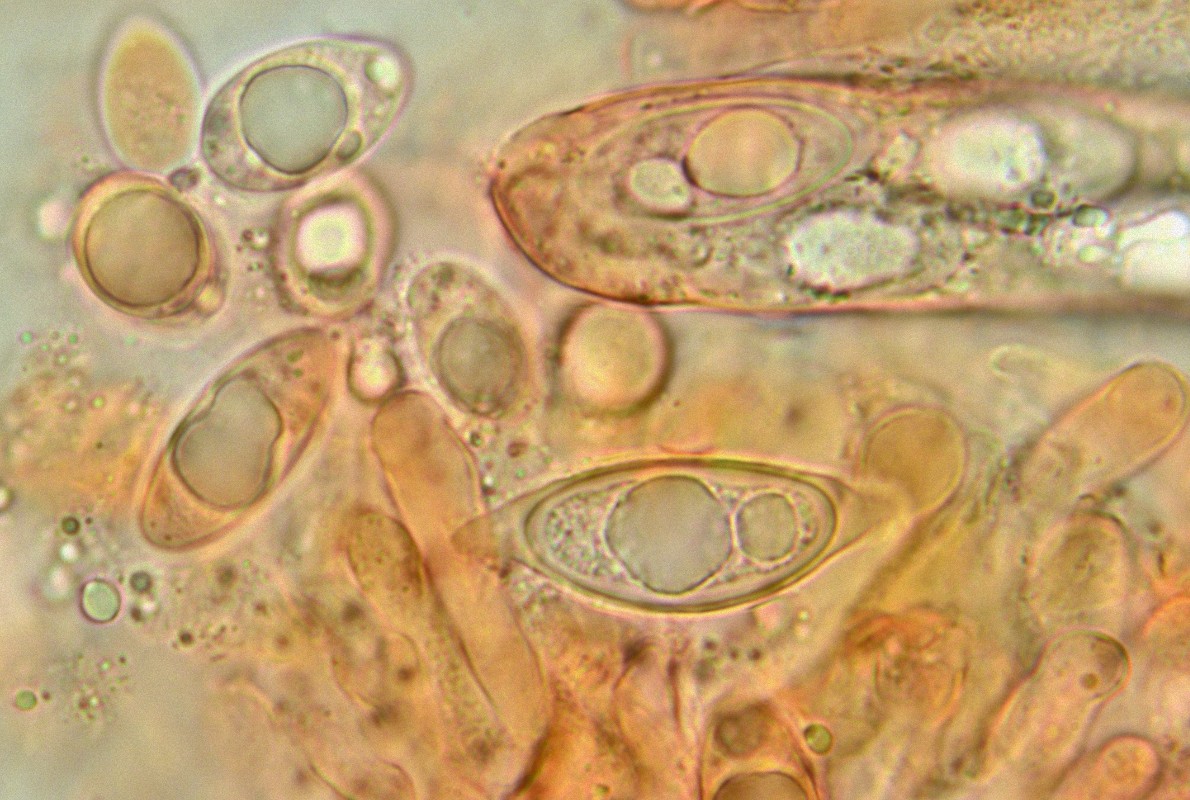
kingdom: Fungi
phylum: Ascomycota
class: Pezizomycetes
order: Pezizales
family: Discinaceae
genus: Discina
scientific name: Discina ancilis
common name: udbredt stenmorkel
